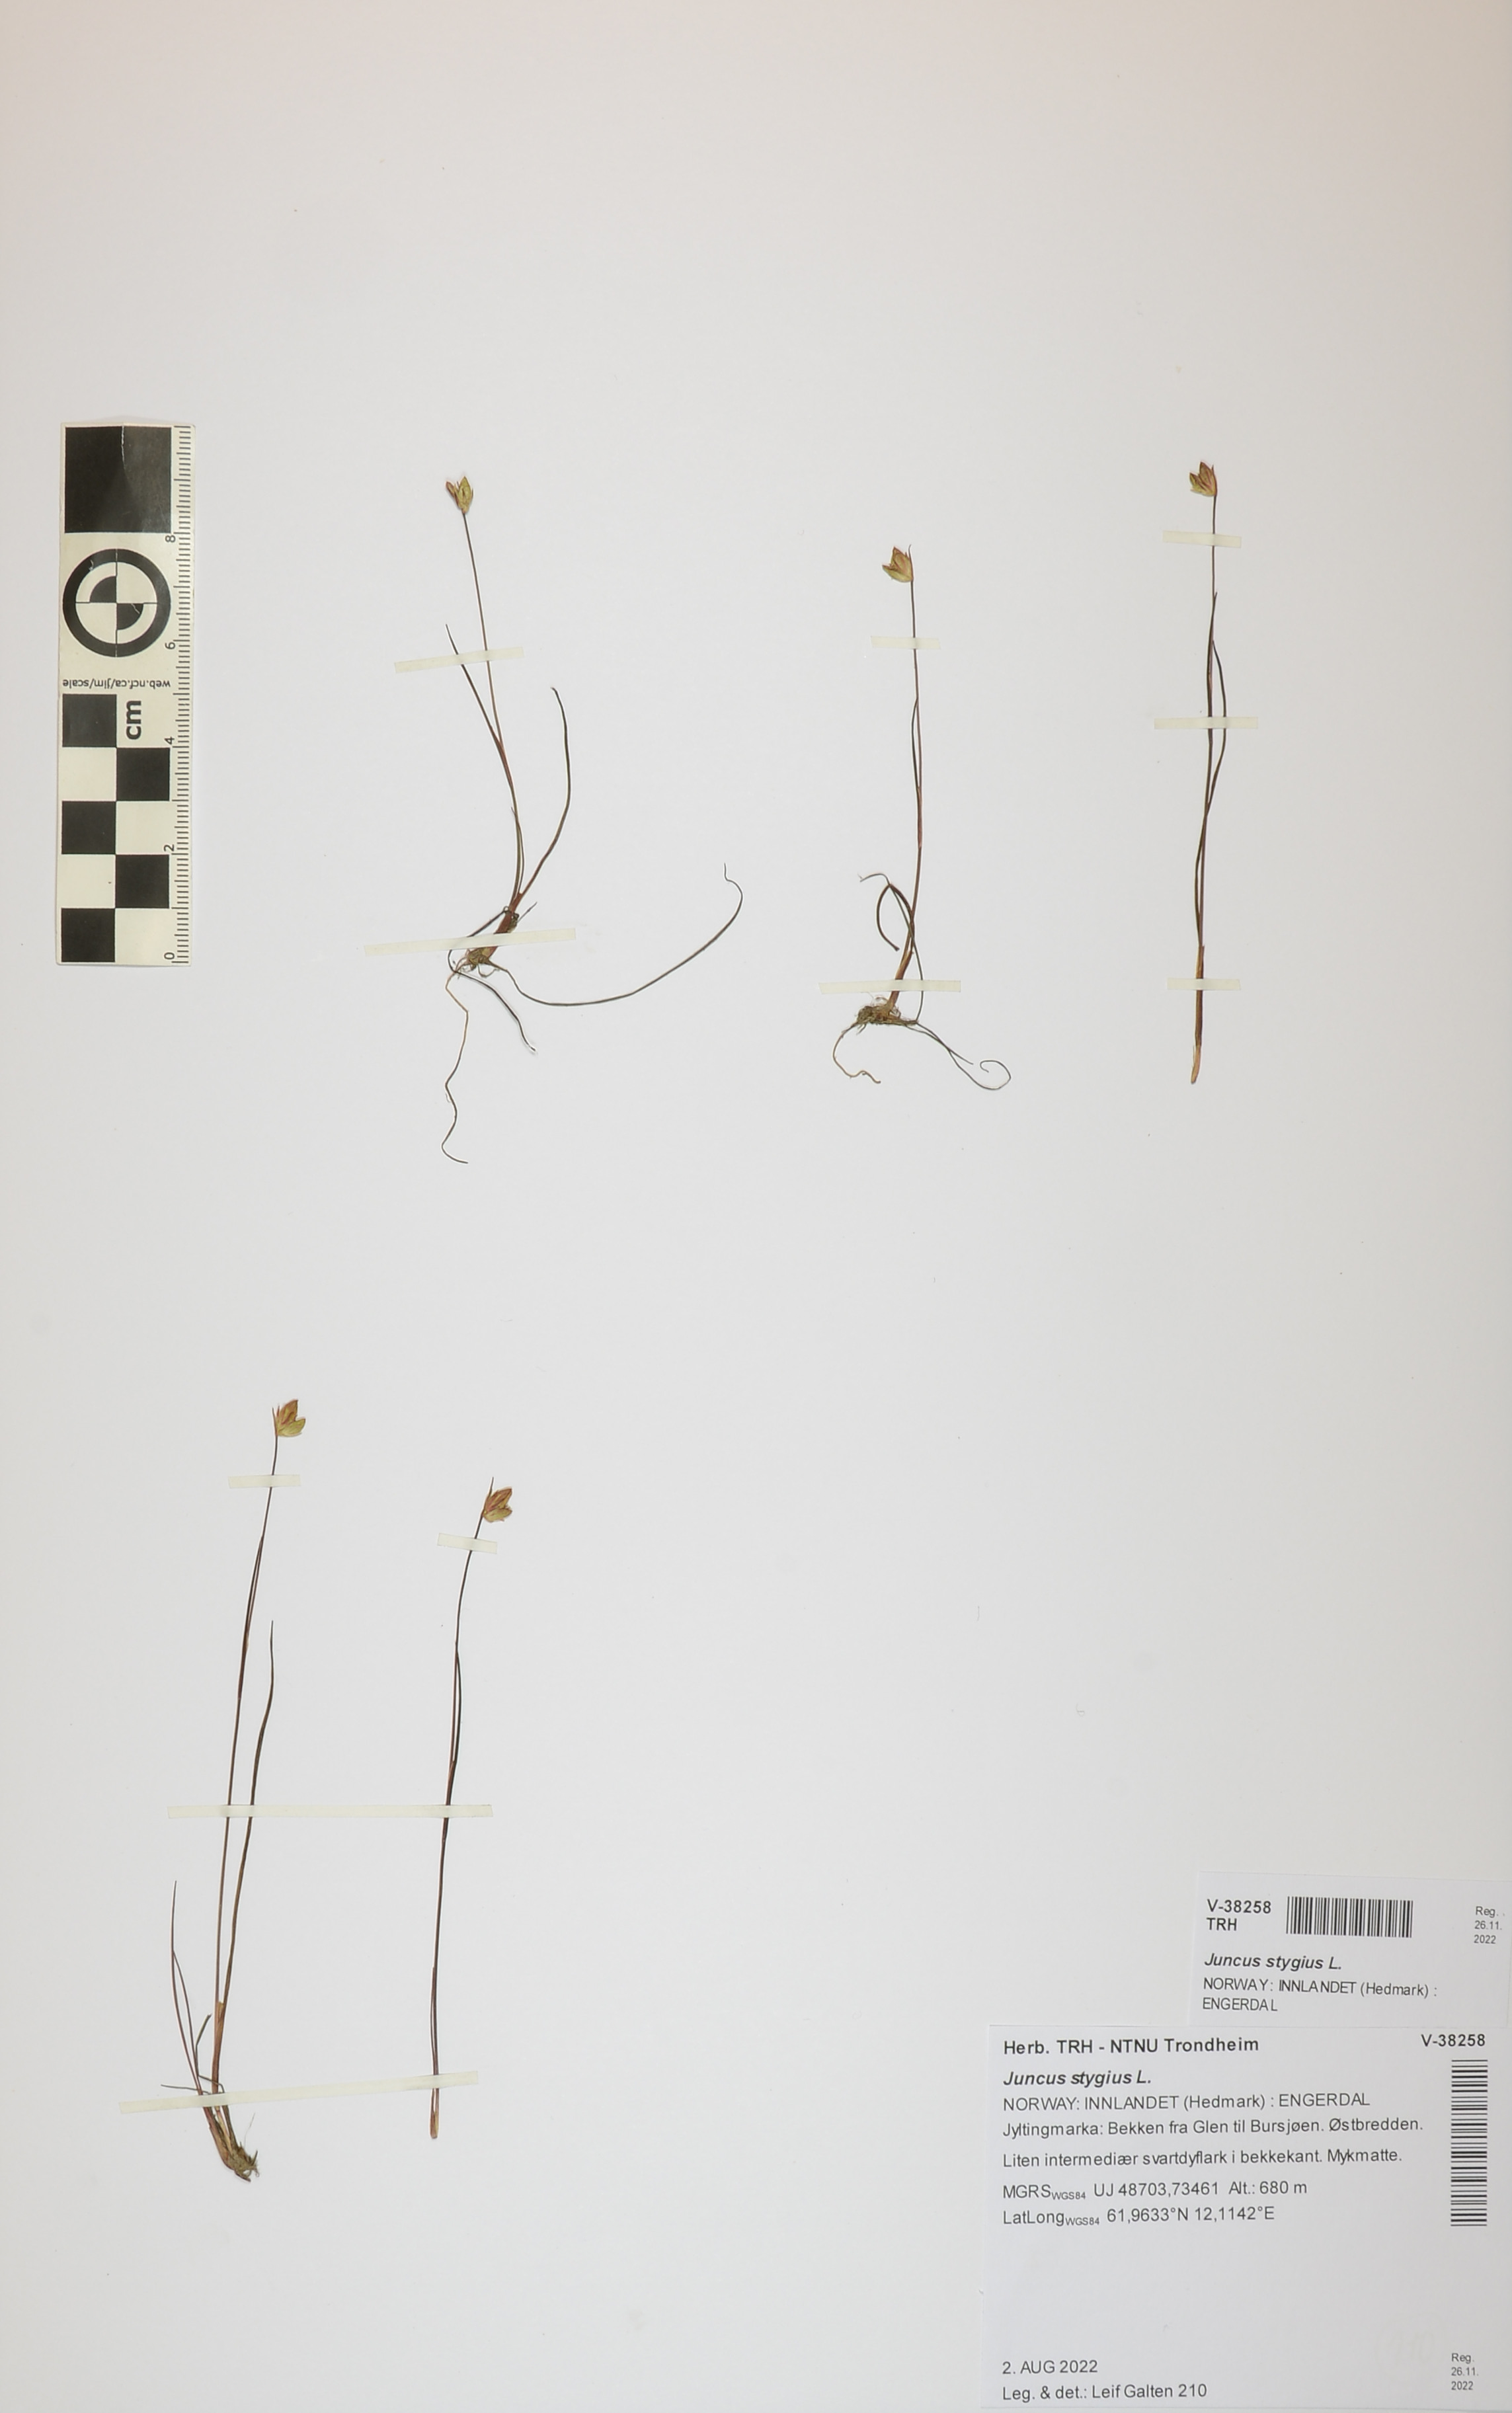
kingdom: Plantae
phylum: Tracheophyta
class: Liliopsida
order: Poales
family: Juncaceae
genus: Juncus
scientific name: Juncus stygius
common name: Bog rush
